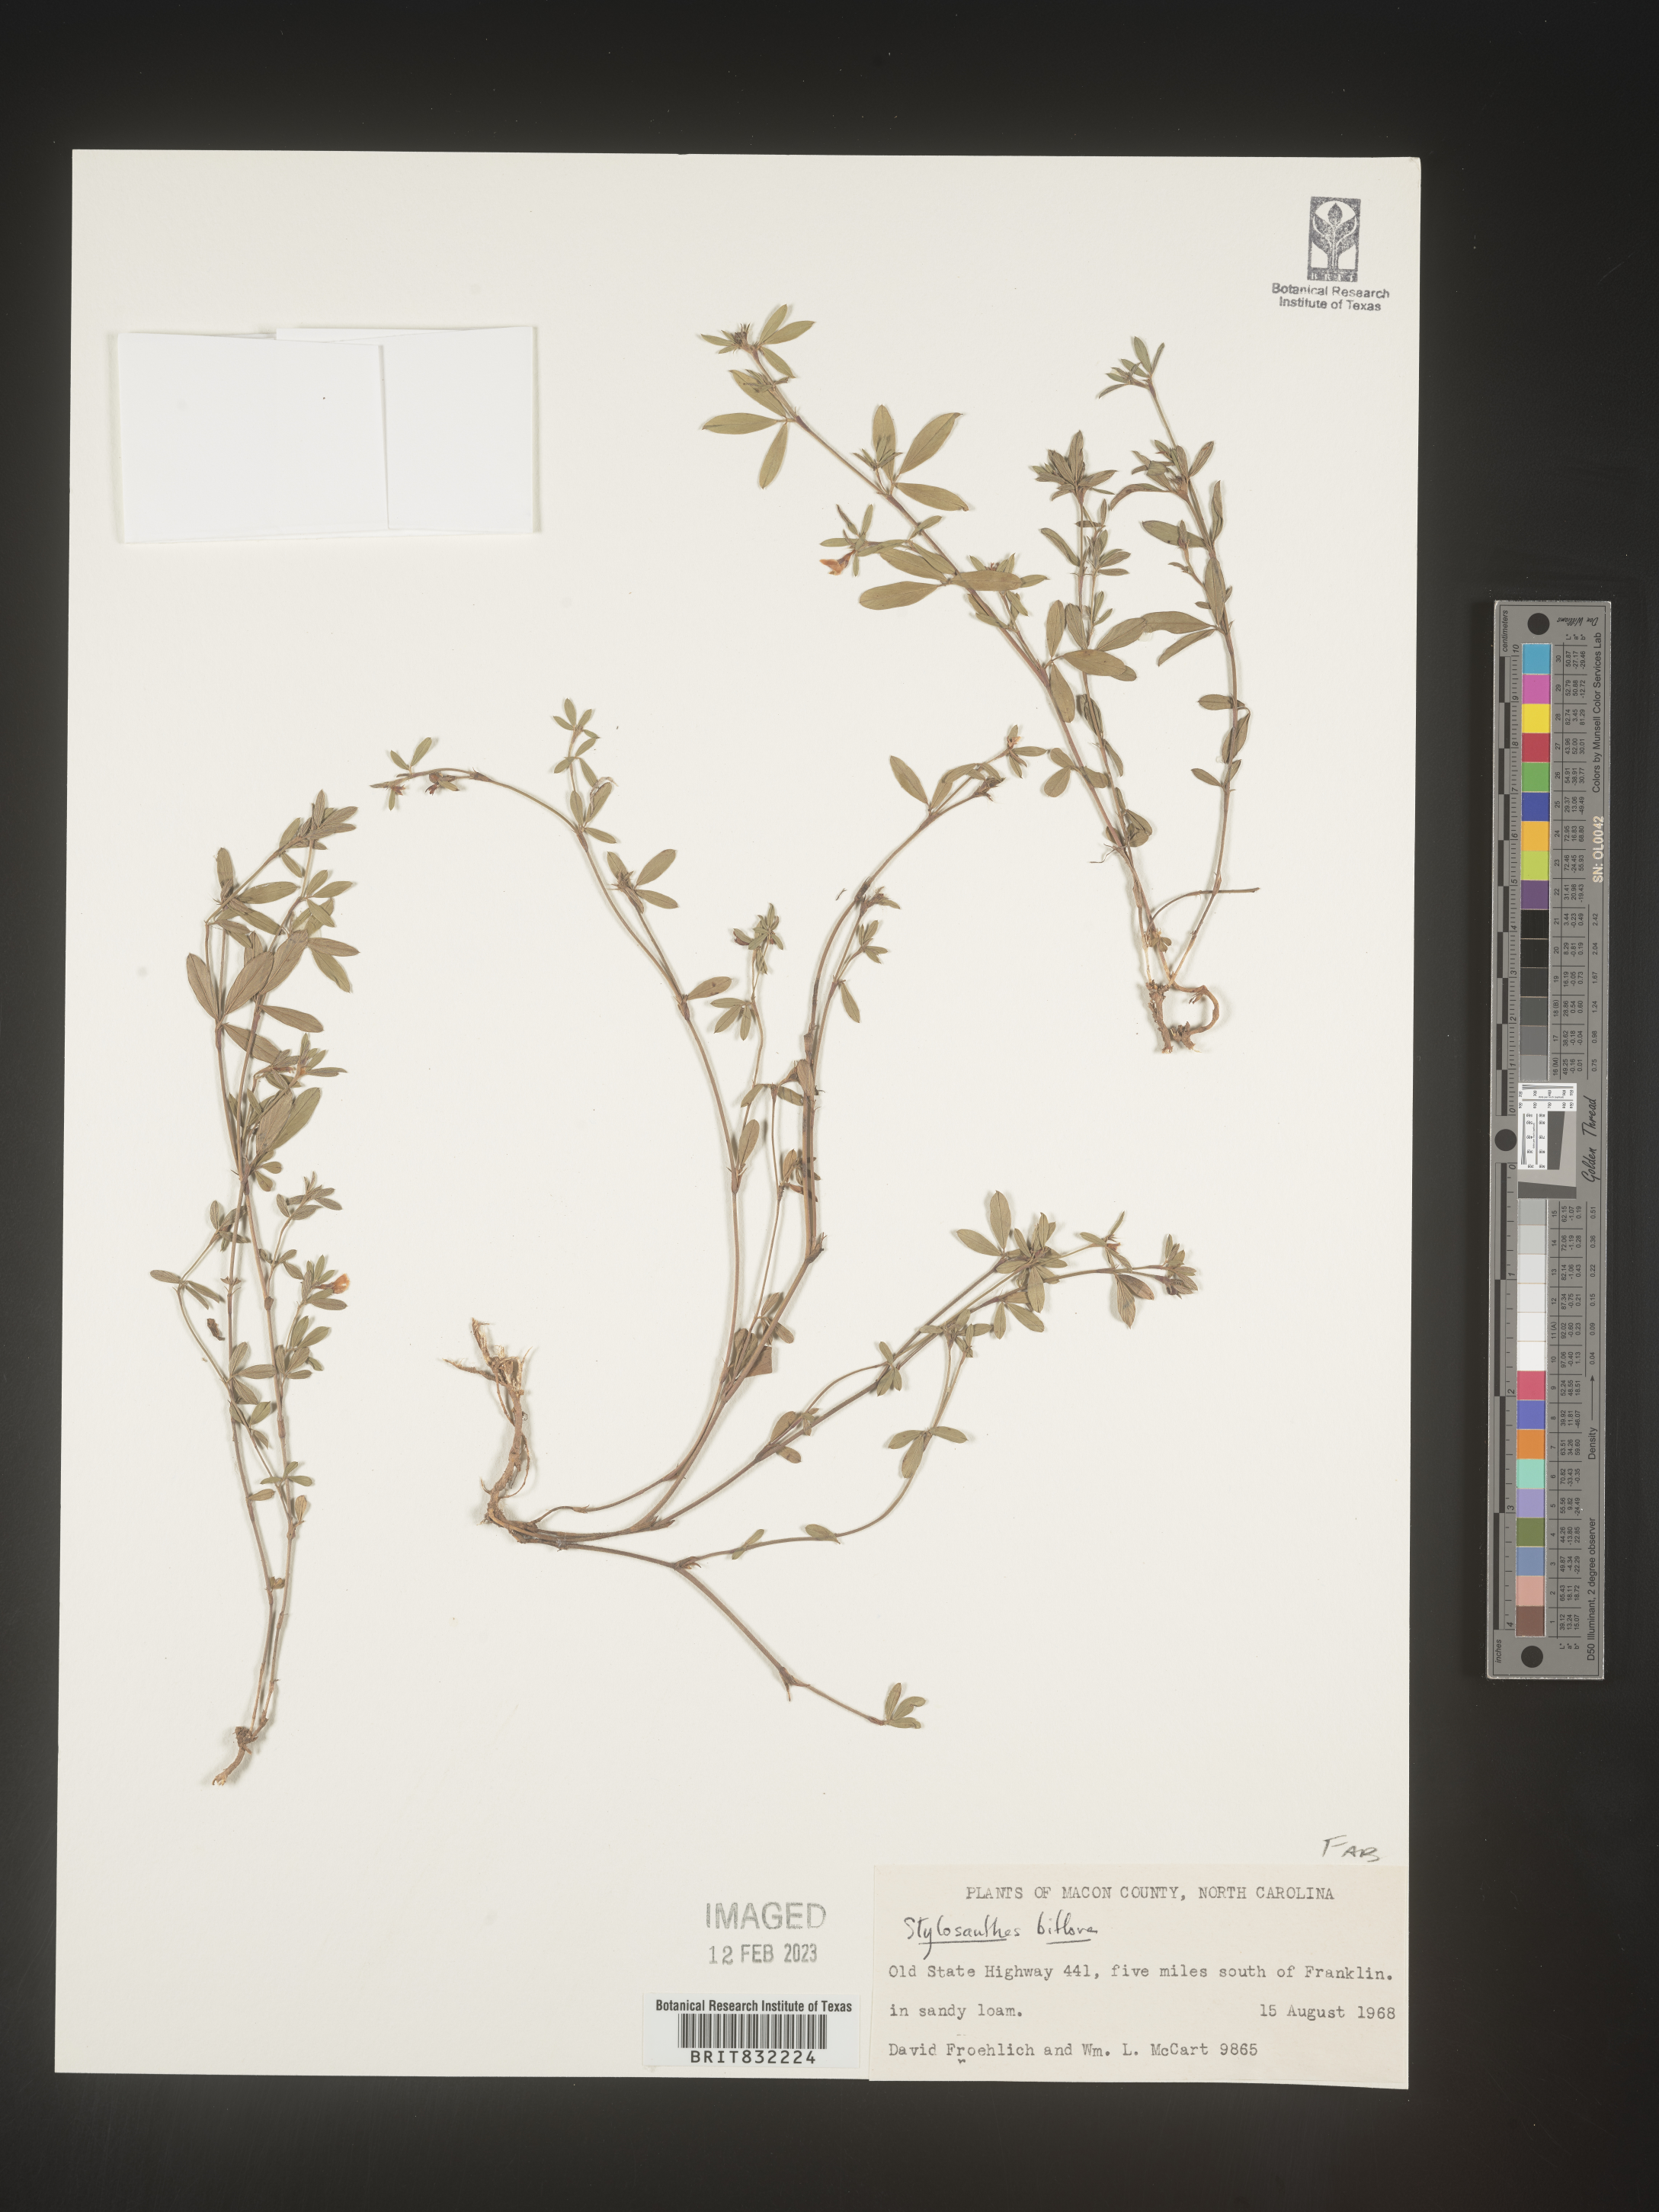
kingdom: Plantae
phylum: Tracheophyta
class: Magnoliopsida
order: Fabales
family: Fabaceae
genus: Stylosanthes
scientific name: Stylosanthes biflora
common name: Two-flower pencil-flower
